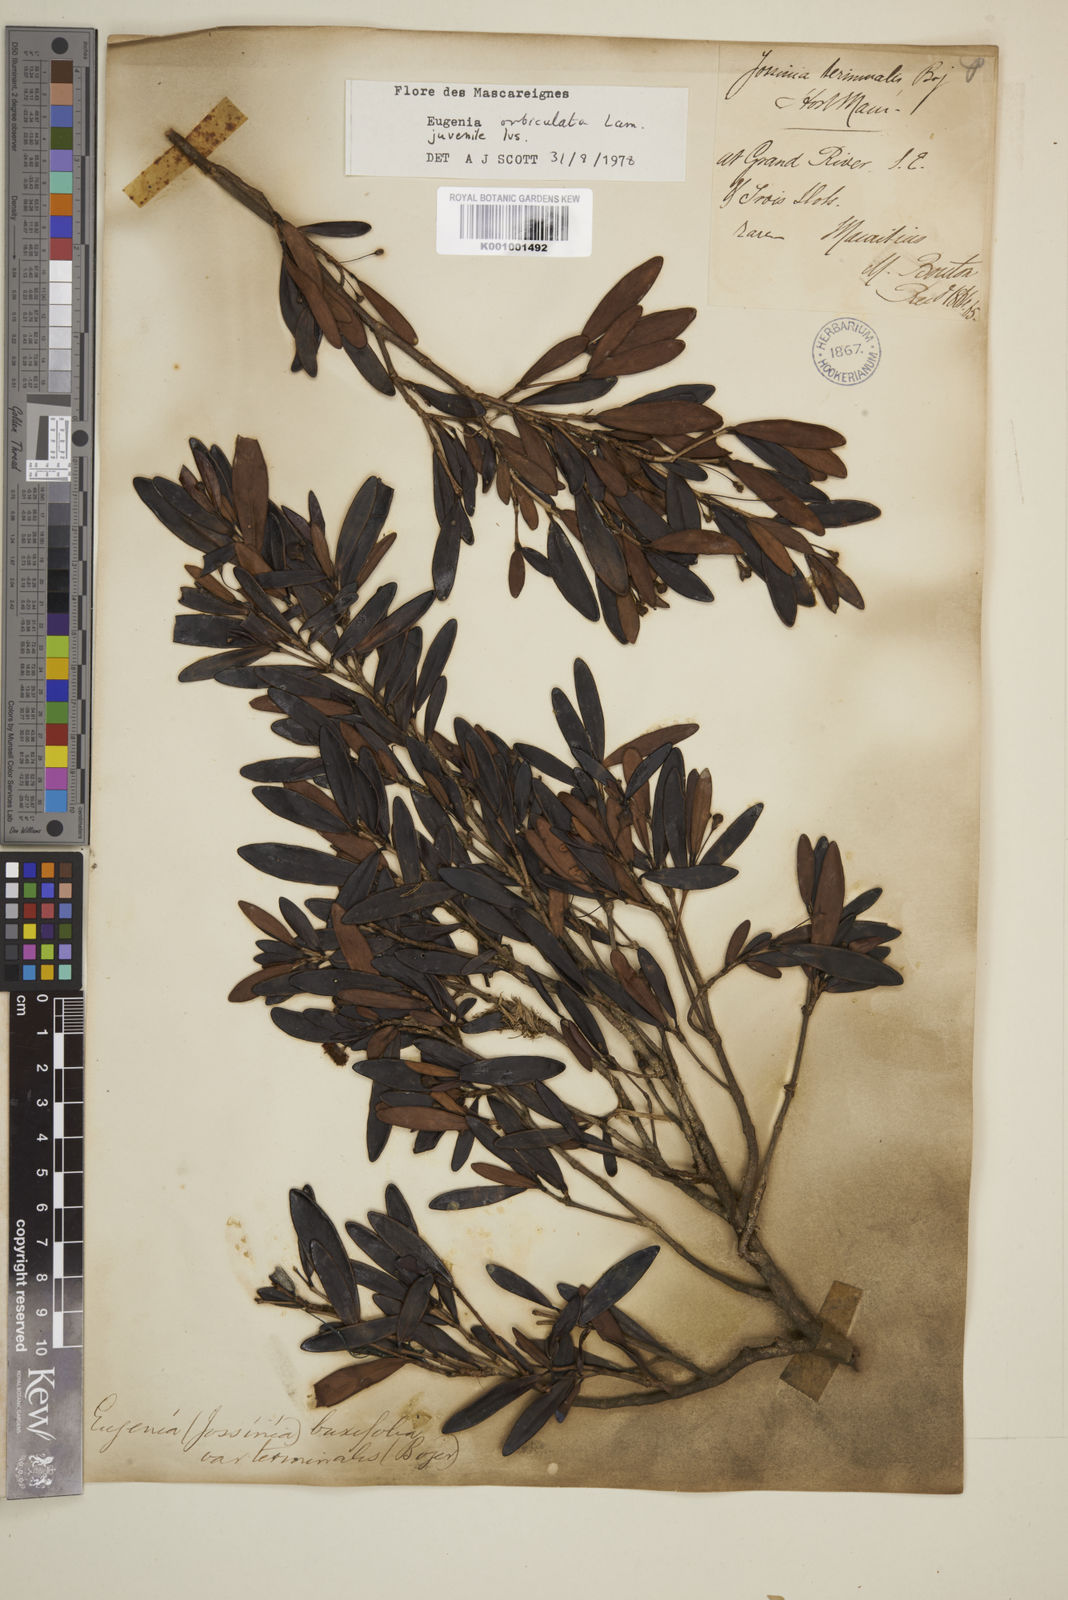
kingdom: Plantae
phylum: Tracheophyta
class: Magnoliopsida
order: Myrtales
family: Myrtaceae
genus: Eugenia
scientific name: Eugenia orbiculata
